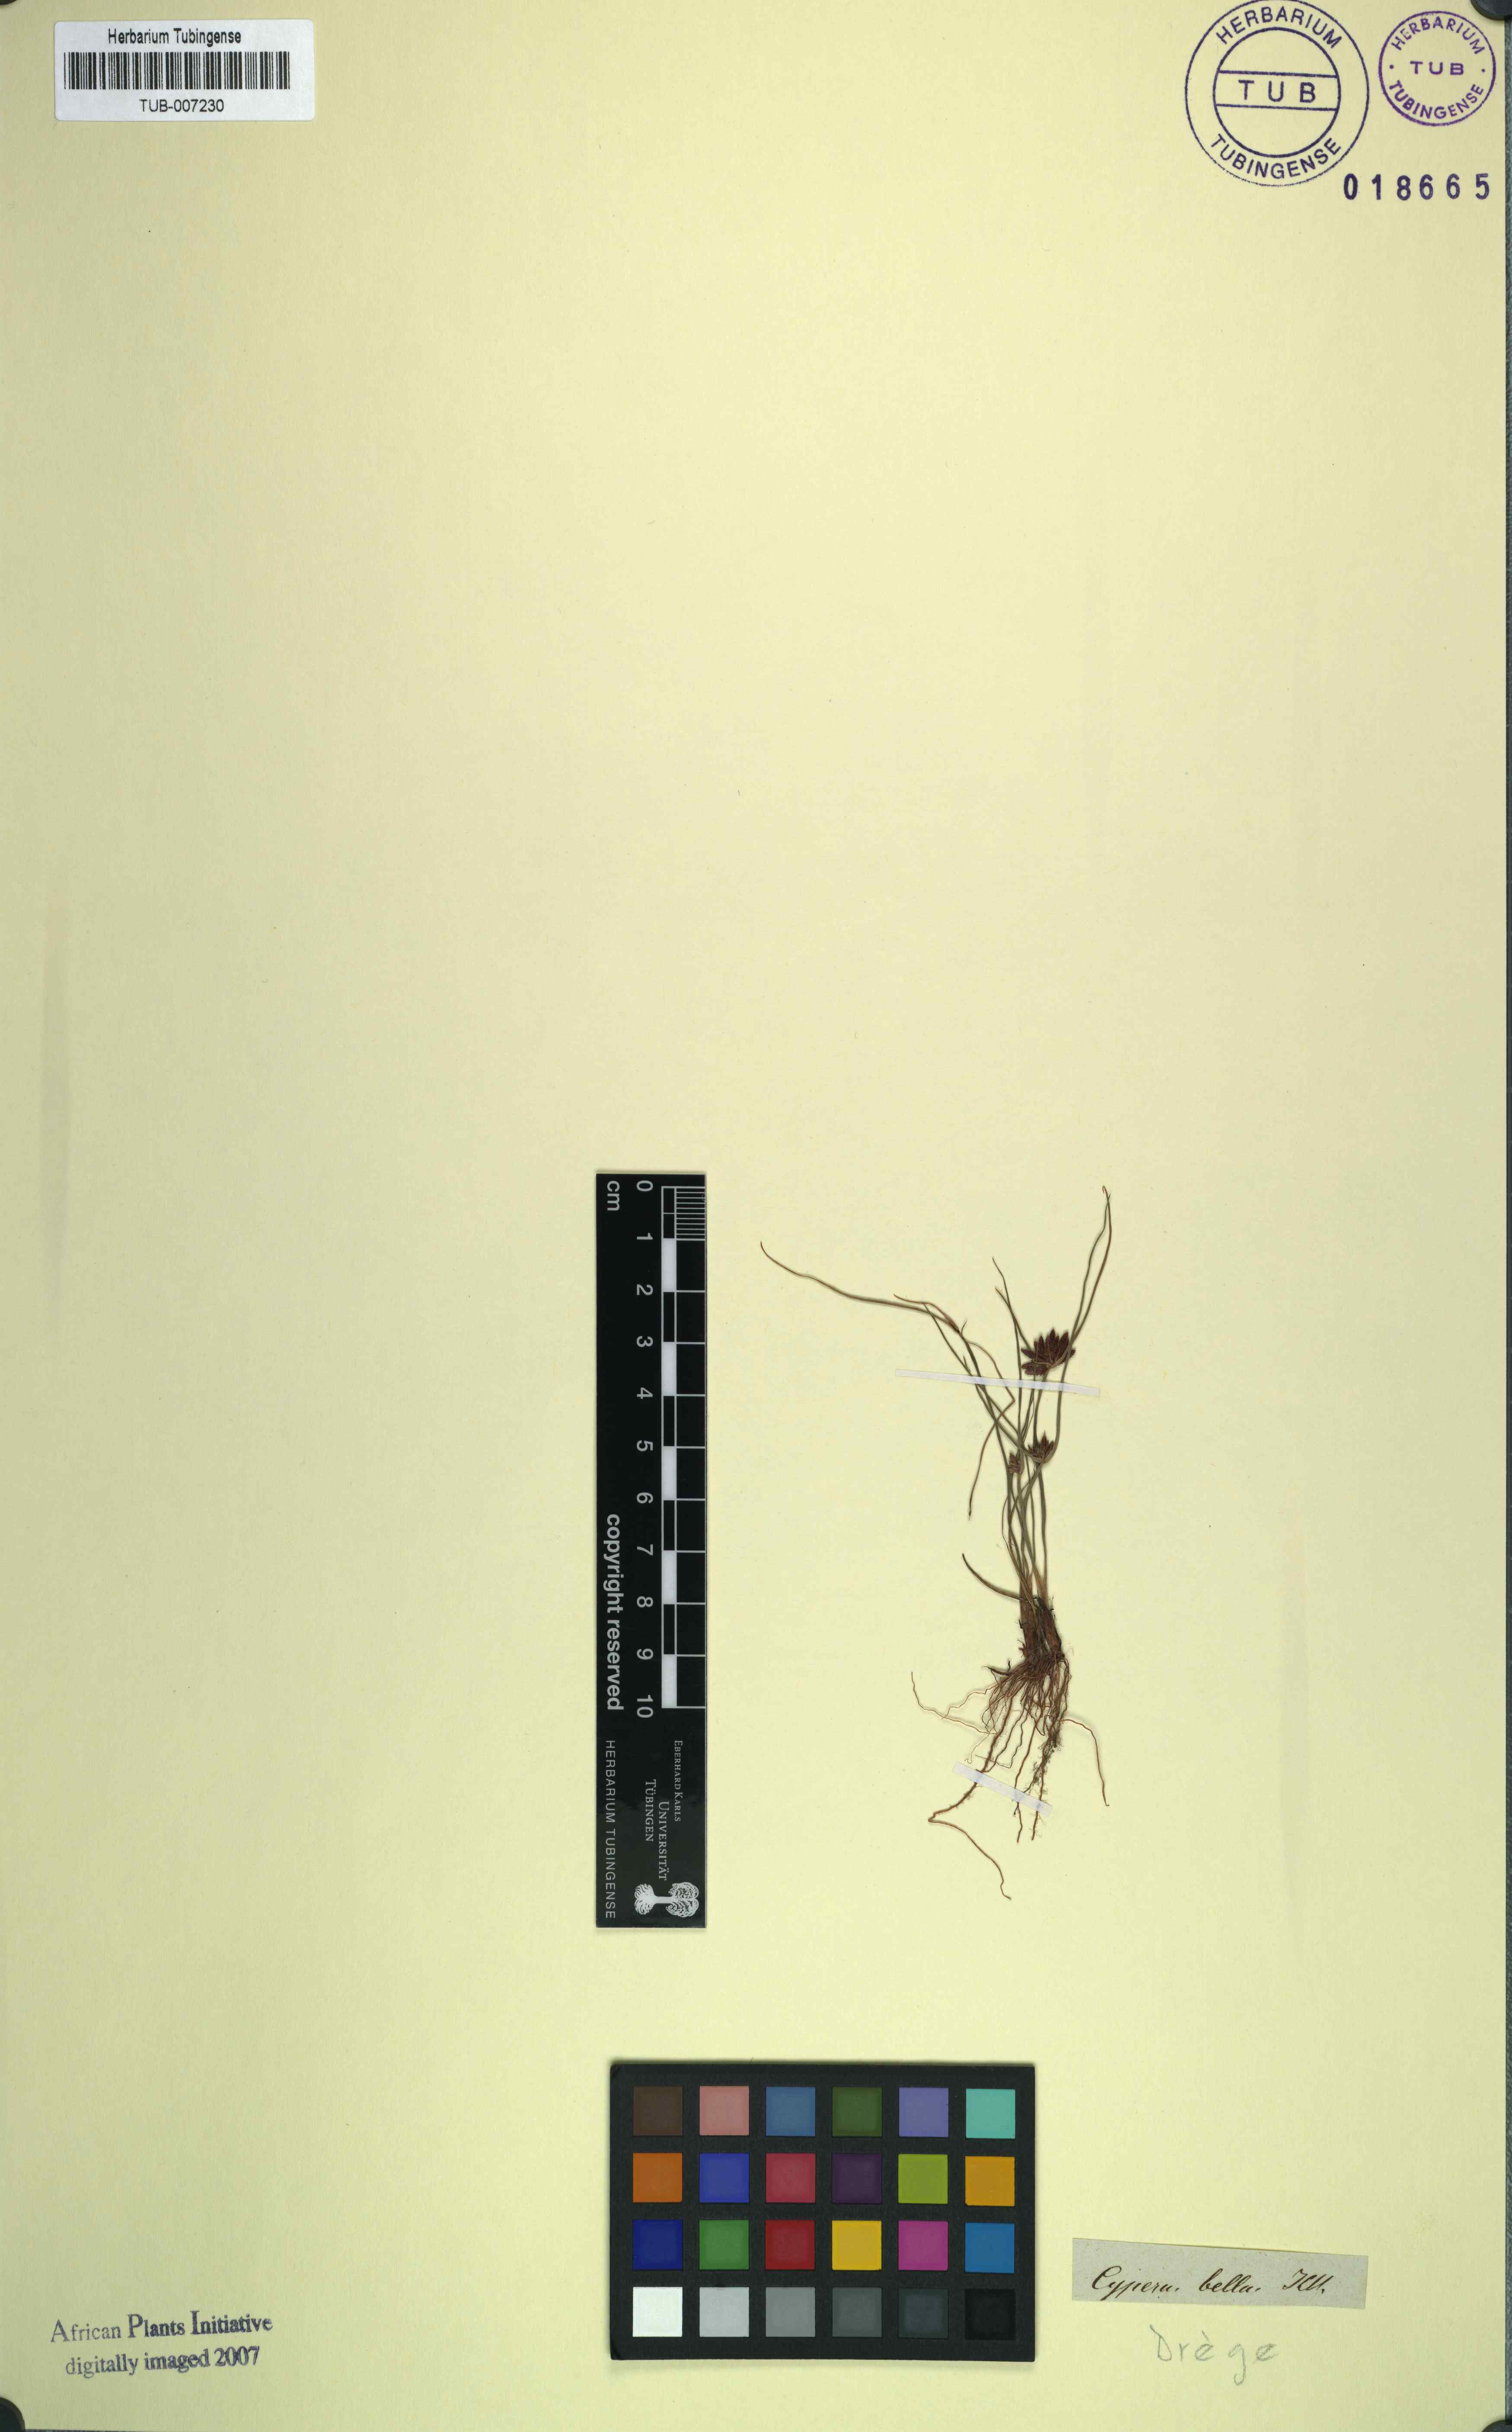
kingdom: Plantae
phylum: Tracheophyta
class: Liliopsida
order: Poales
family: Cyperaceae
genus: Cyperus
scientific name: Cyperus bellus
